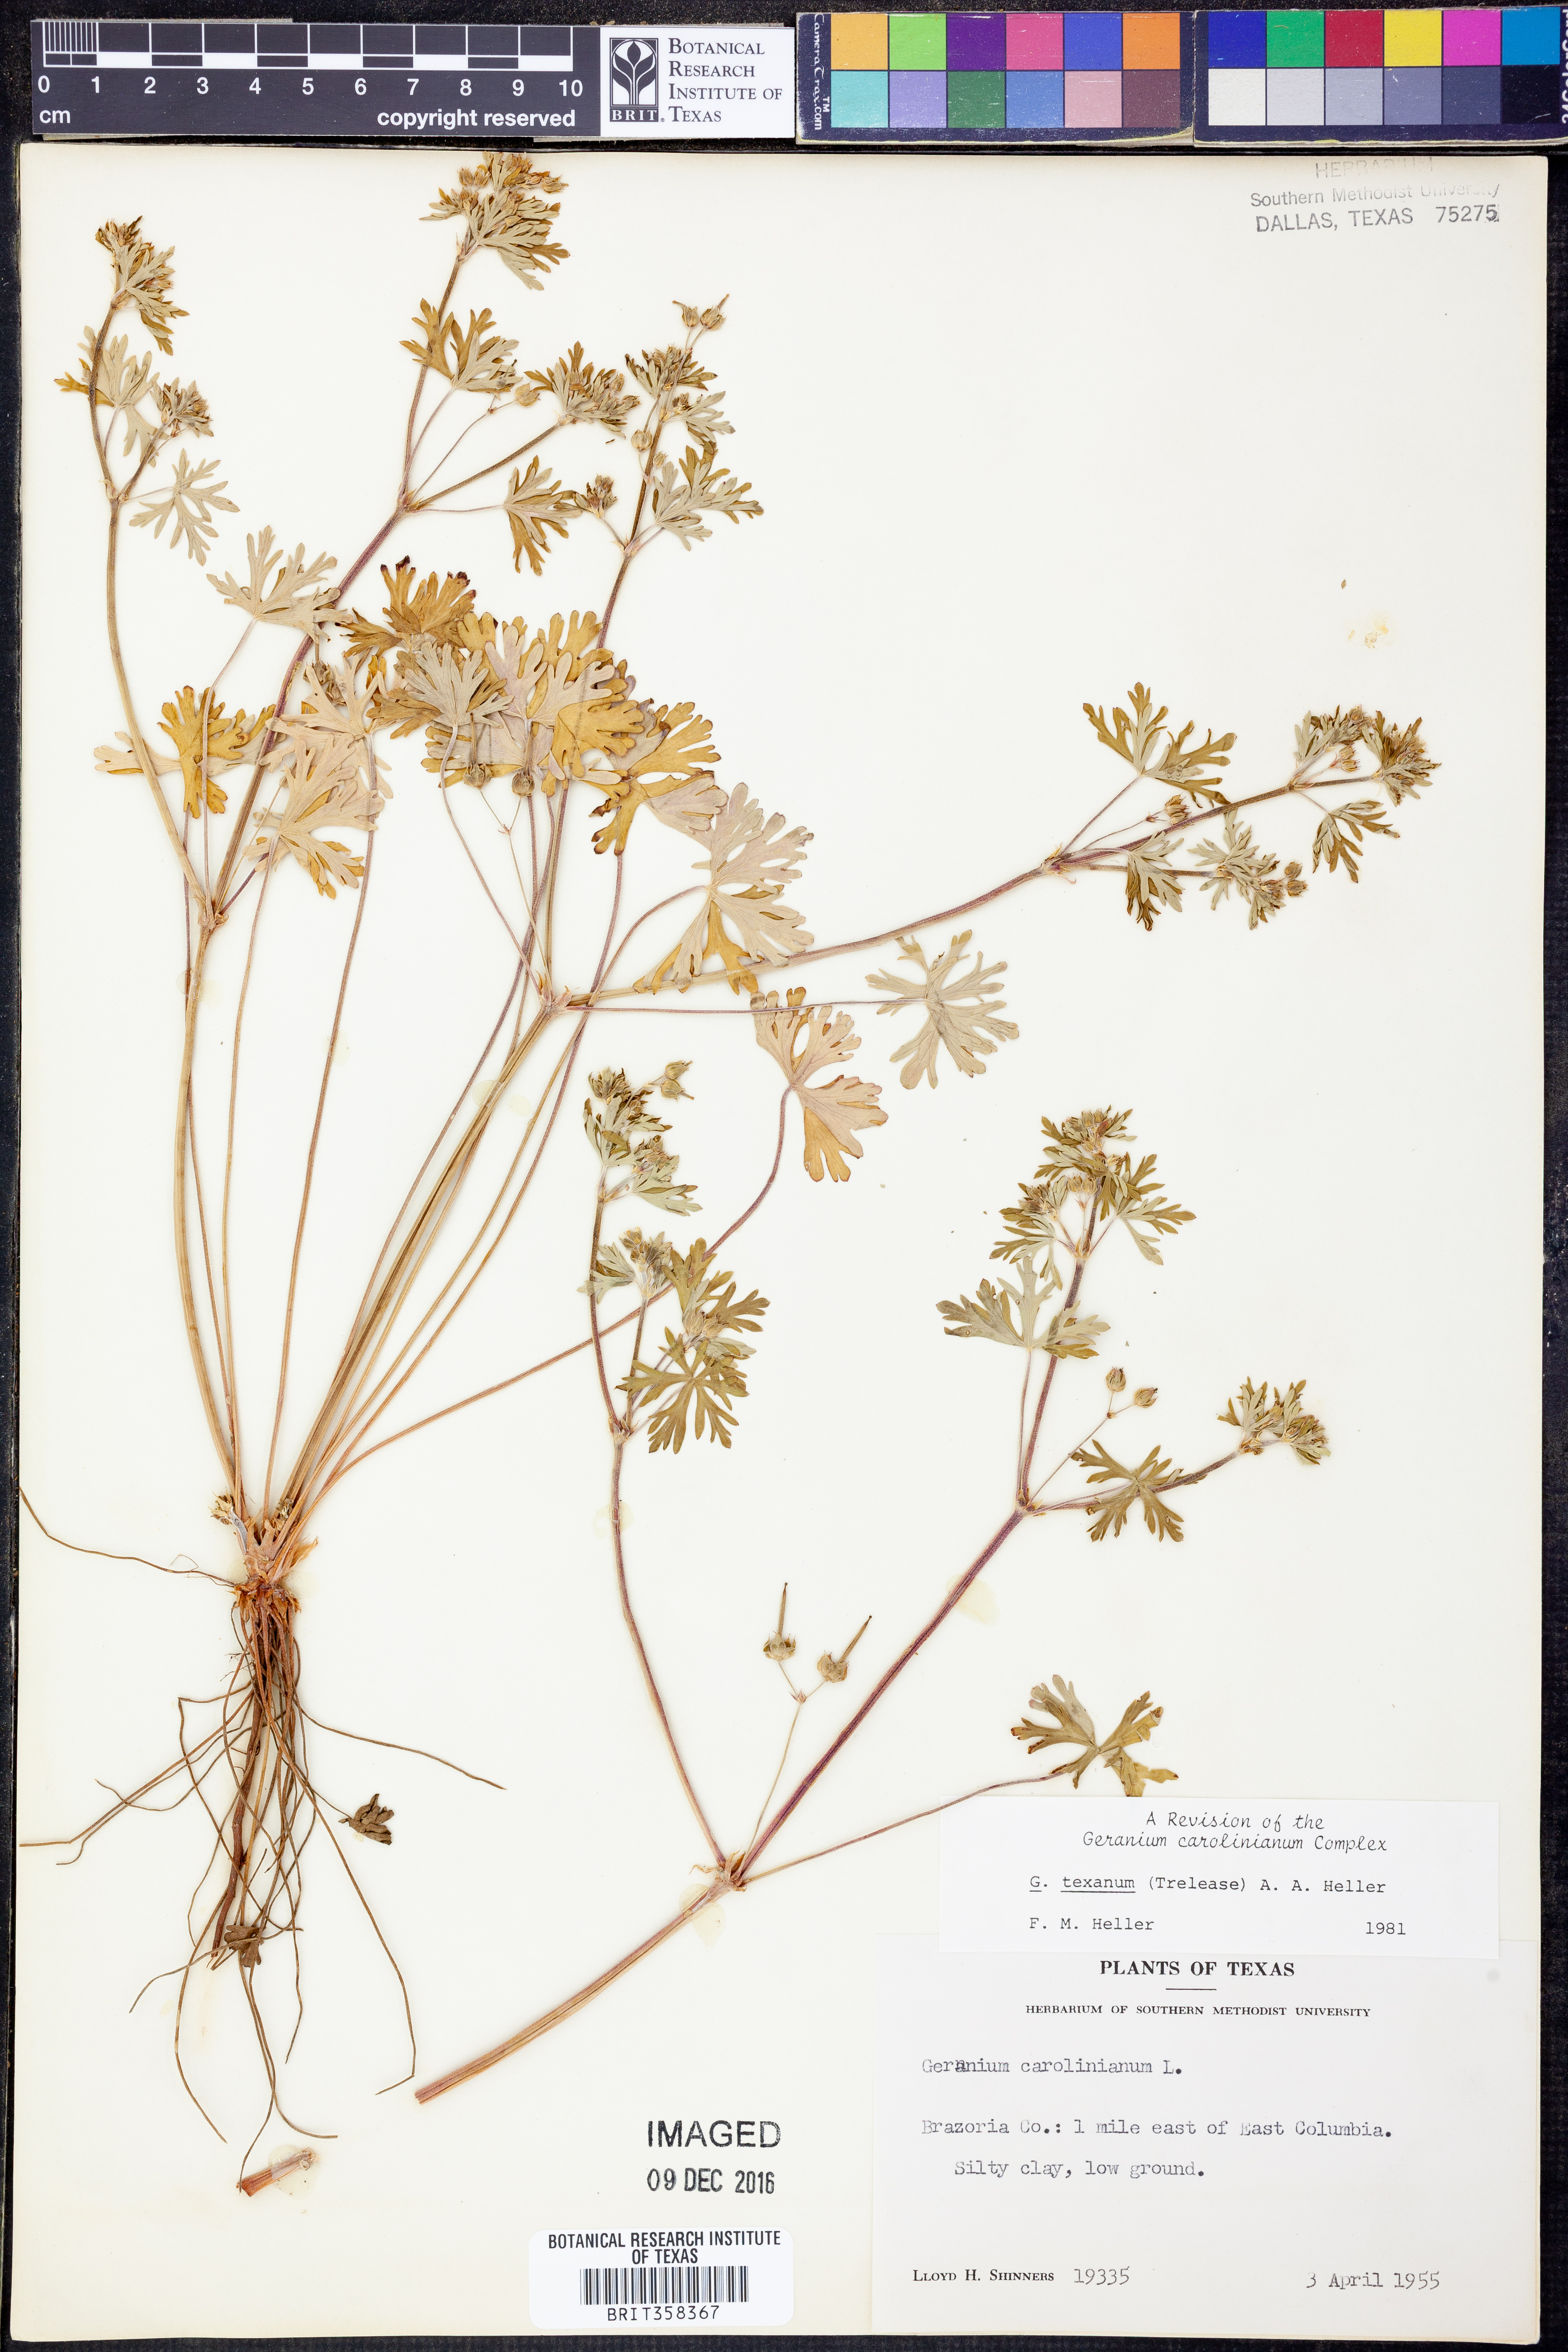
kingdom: Plantae
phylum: Tracheophyta
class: Magnoliopsida
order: Geraniales
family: Geraniaceae
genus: Geranium
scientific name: Geranium texanum
